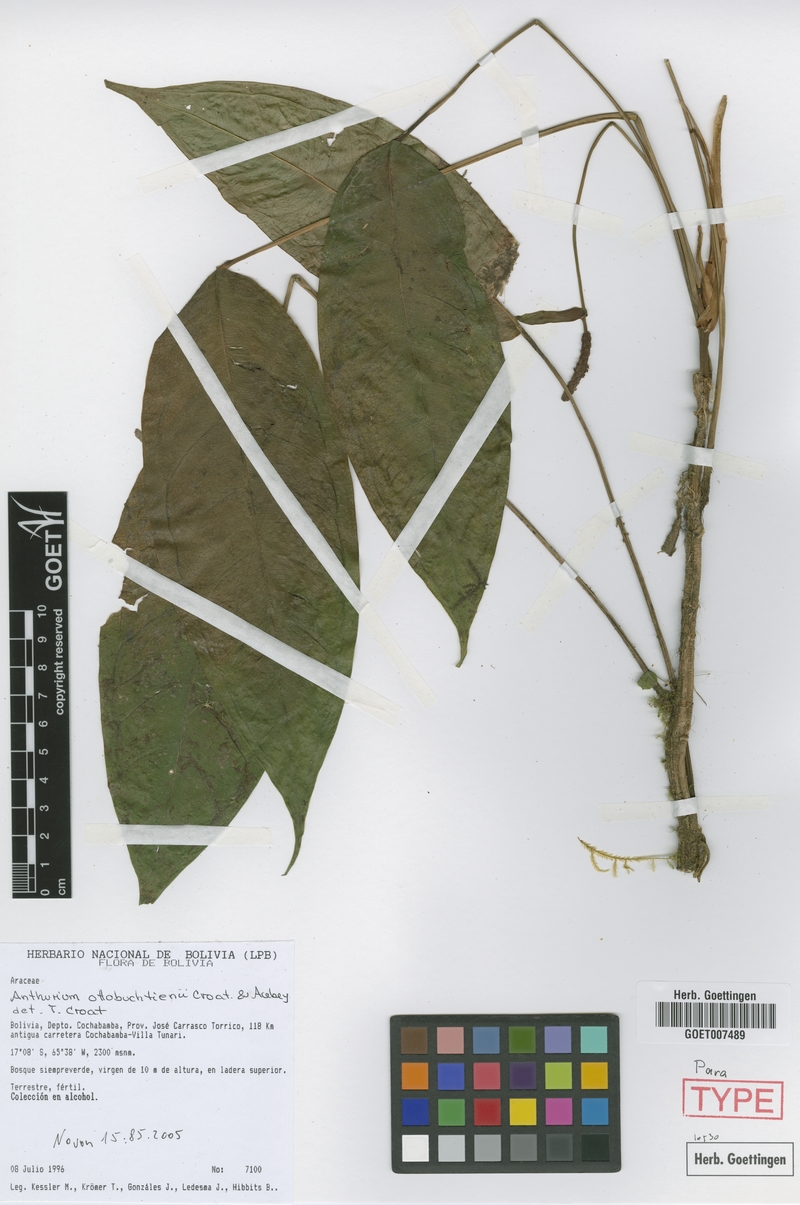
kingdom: Plantae
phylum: Tracheophyta
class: Liliopsida
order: Alismatales
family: Araceae
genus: Anthurium
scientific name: Anthurium ottobuchtienii
